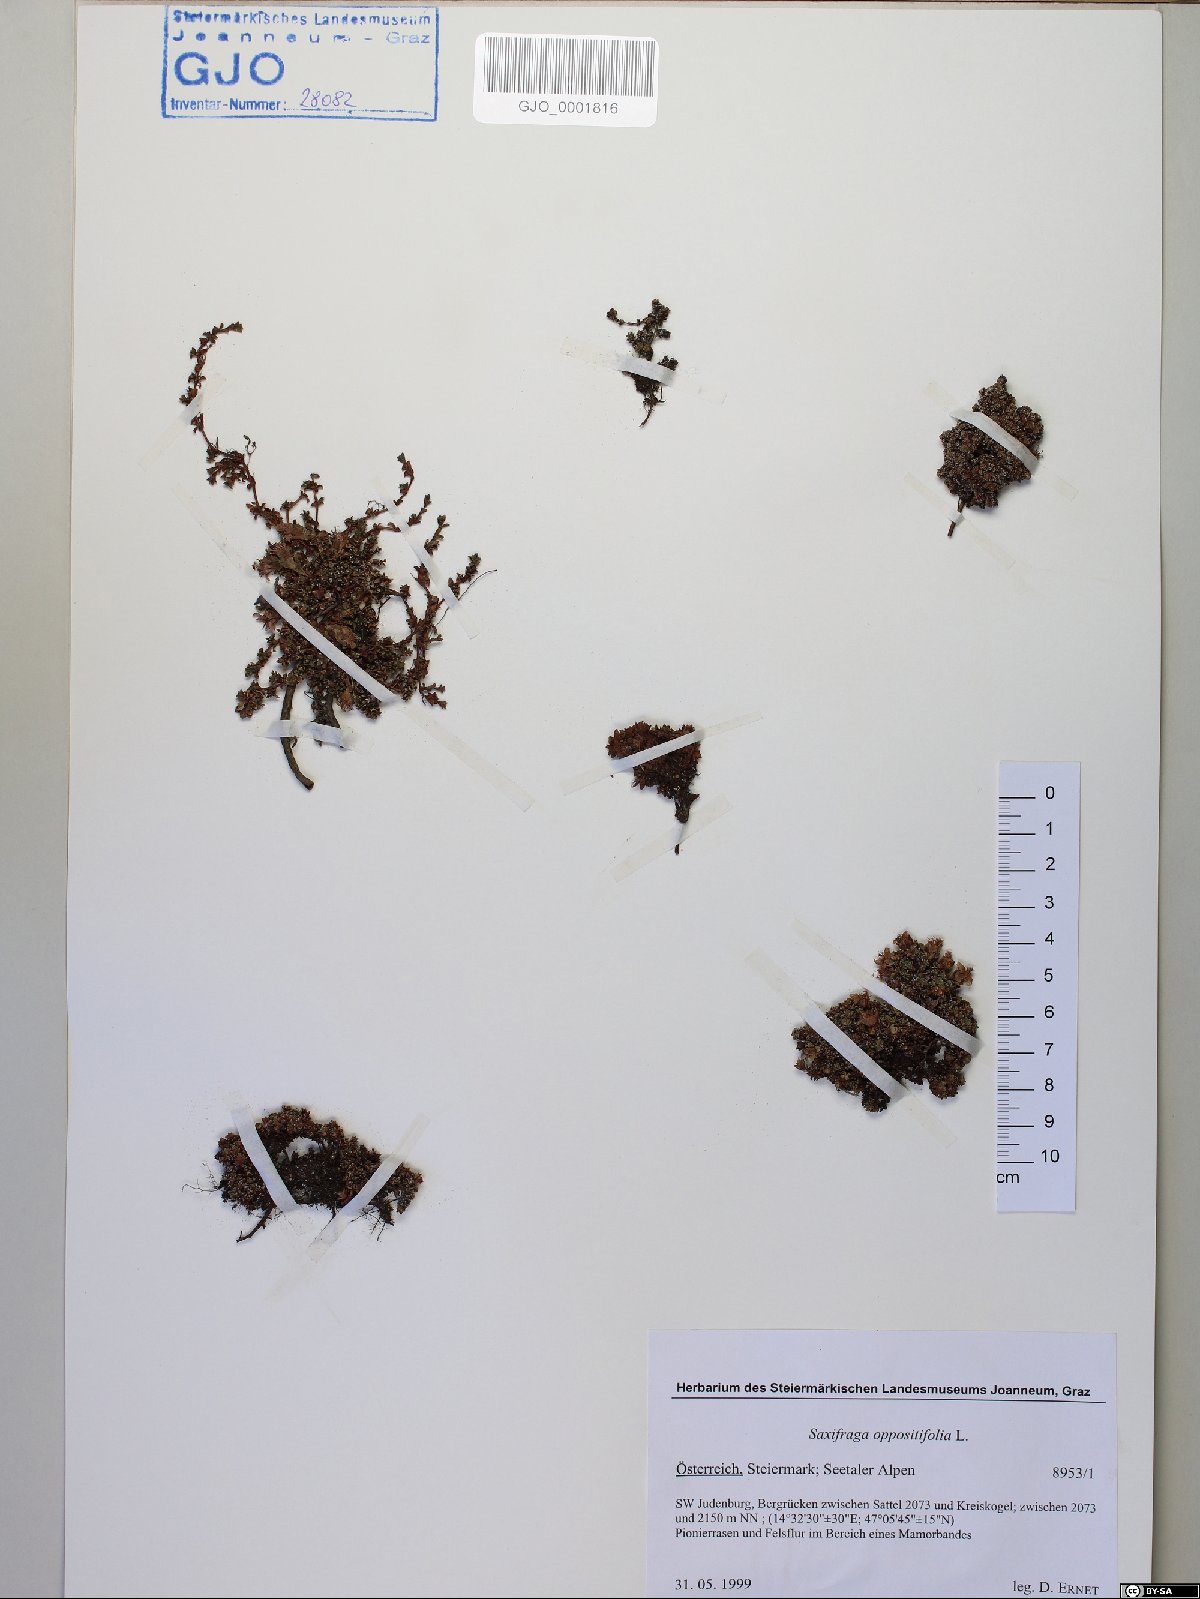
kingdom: Plantae
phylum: Tracheophyta
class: Magnoliopsida
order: Saxifragales
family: Saxifragaceae
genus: Saxifraga
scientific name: Saxifraga oppositifolia
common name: Purple saxifrage
